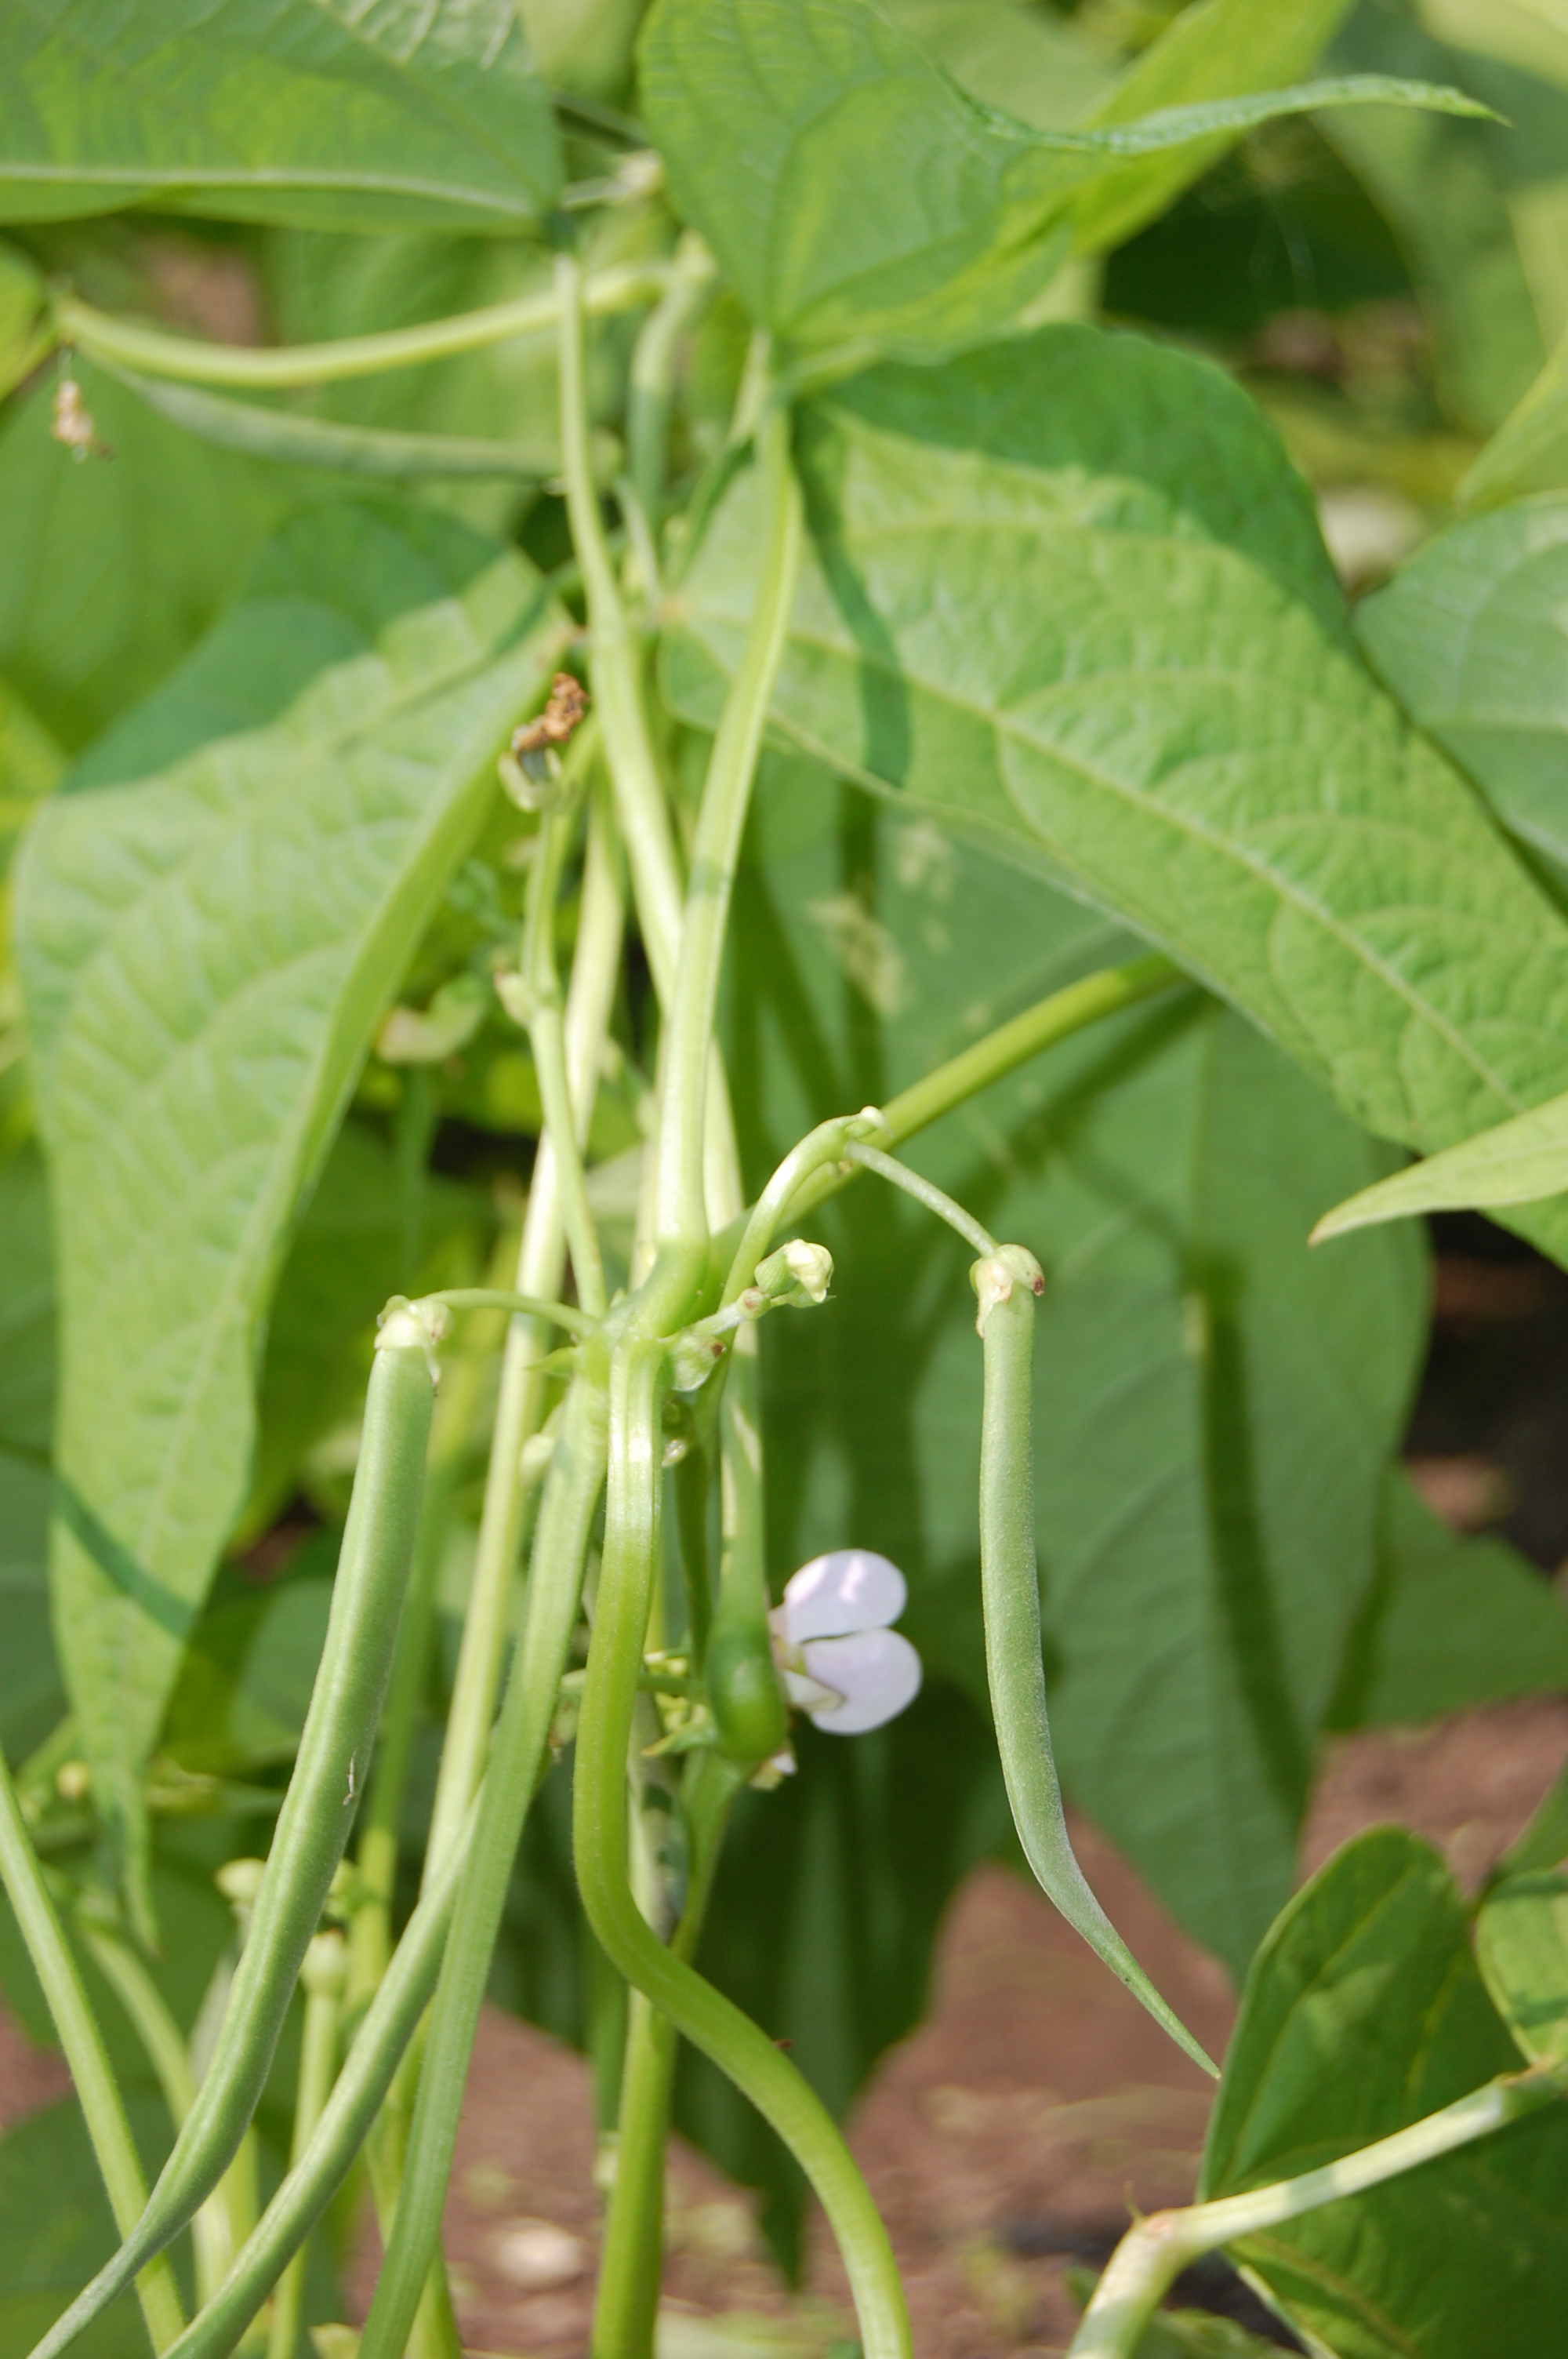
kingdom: Plantae
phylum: Tracheophyta
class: Magnoliopsida
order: Fabales
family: Fabaceae
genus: Phaseolus
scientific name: Phaseolus vulgaris
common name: Bean
